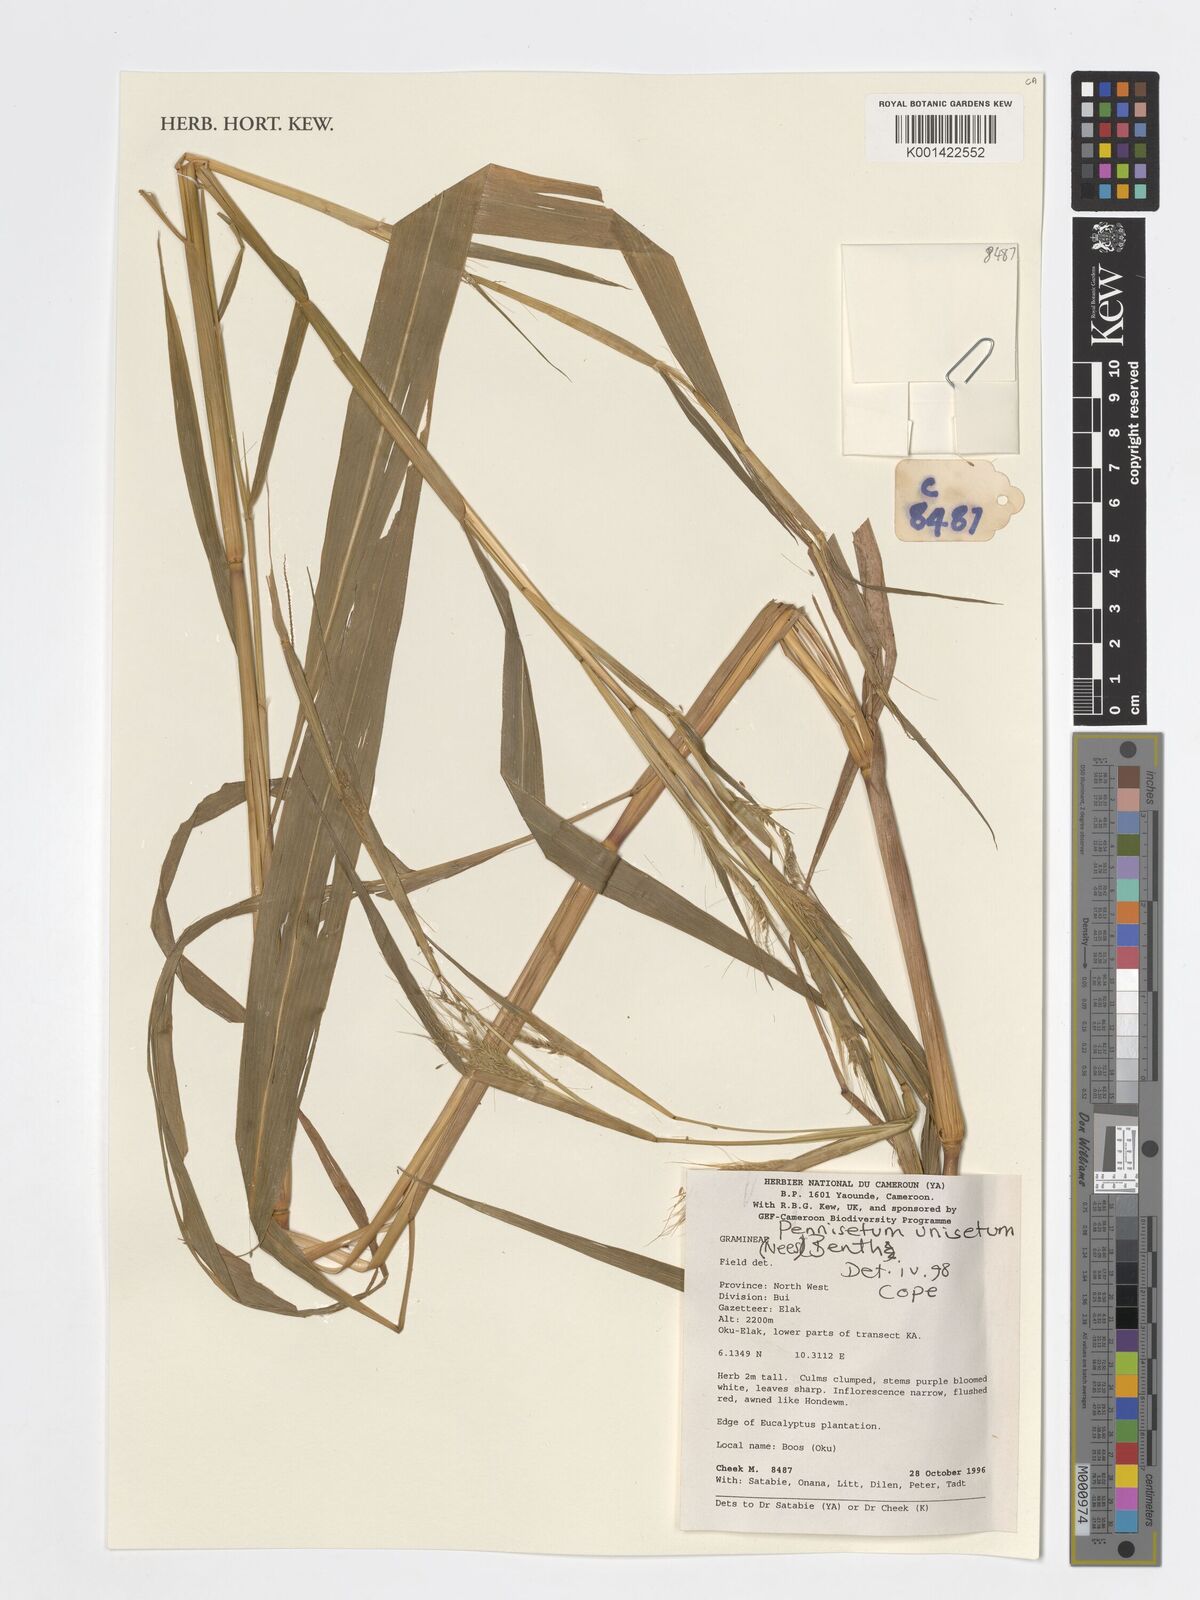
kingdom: Plantae
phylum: Tracheophyta
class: Liliopsida
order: Poales
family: Poaceae
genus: Cenchrus
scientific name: Cenchrus unisetus
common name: Natal grass
